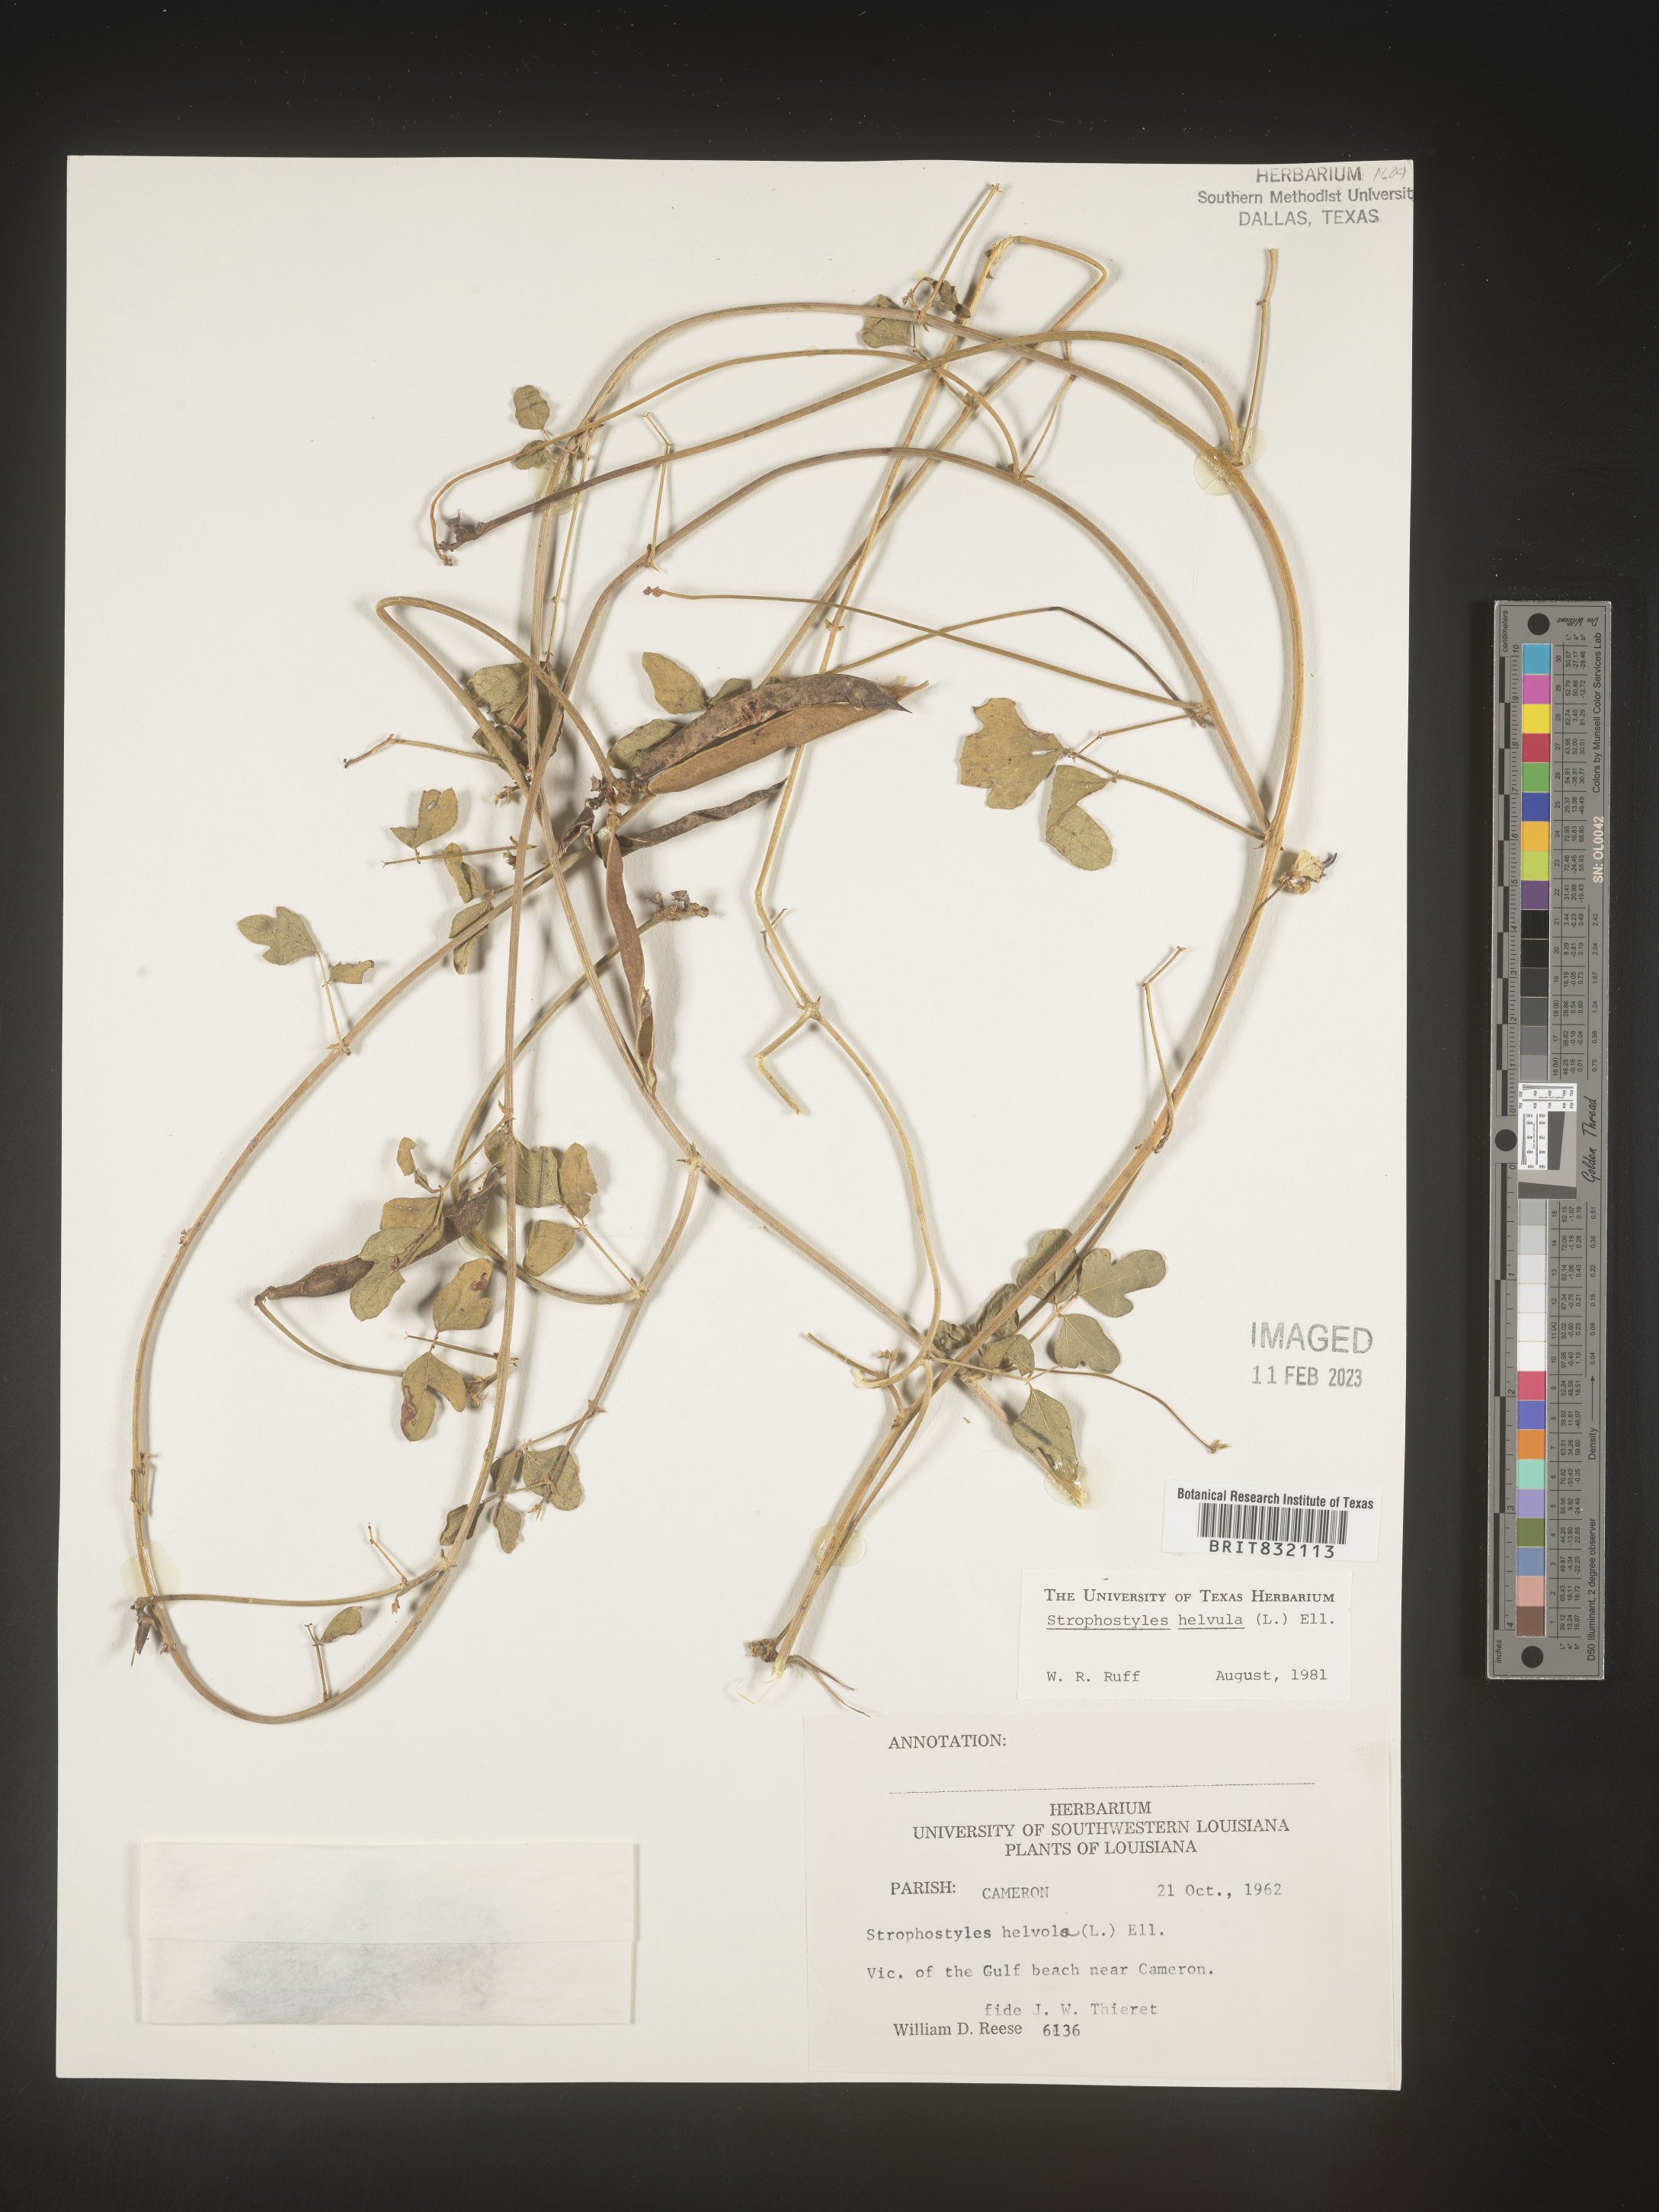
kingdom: Plantae
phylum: Tracheophyta
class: Magnoliopsida
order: Fabales
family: Fabaceae
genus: Strophostyles
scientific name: Strophostyles helvola
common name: Trailing wild bean
